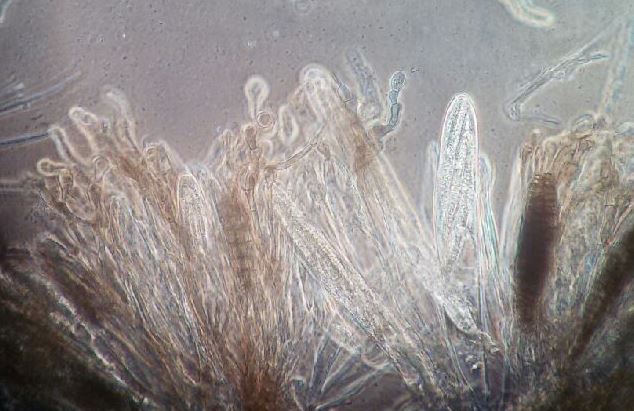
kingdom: Fungi
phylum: Ascomycota
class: Geoglossomycetes
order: Geoglossales
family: Geoglossaceae
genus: Geoglossum
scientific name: Geoglossum cookeianum
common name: bred jordtunge
